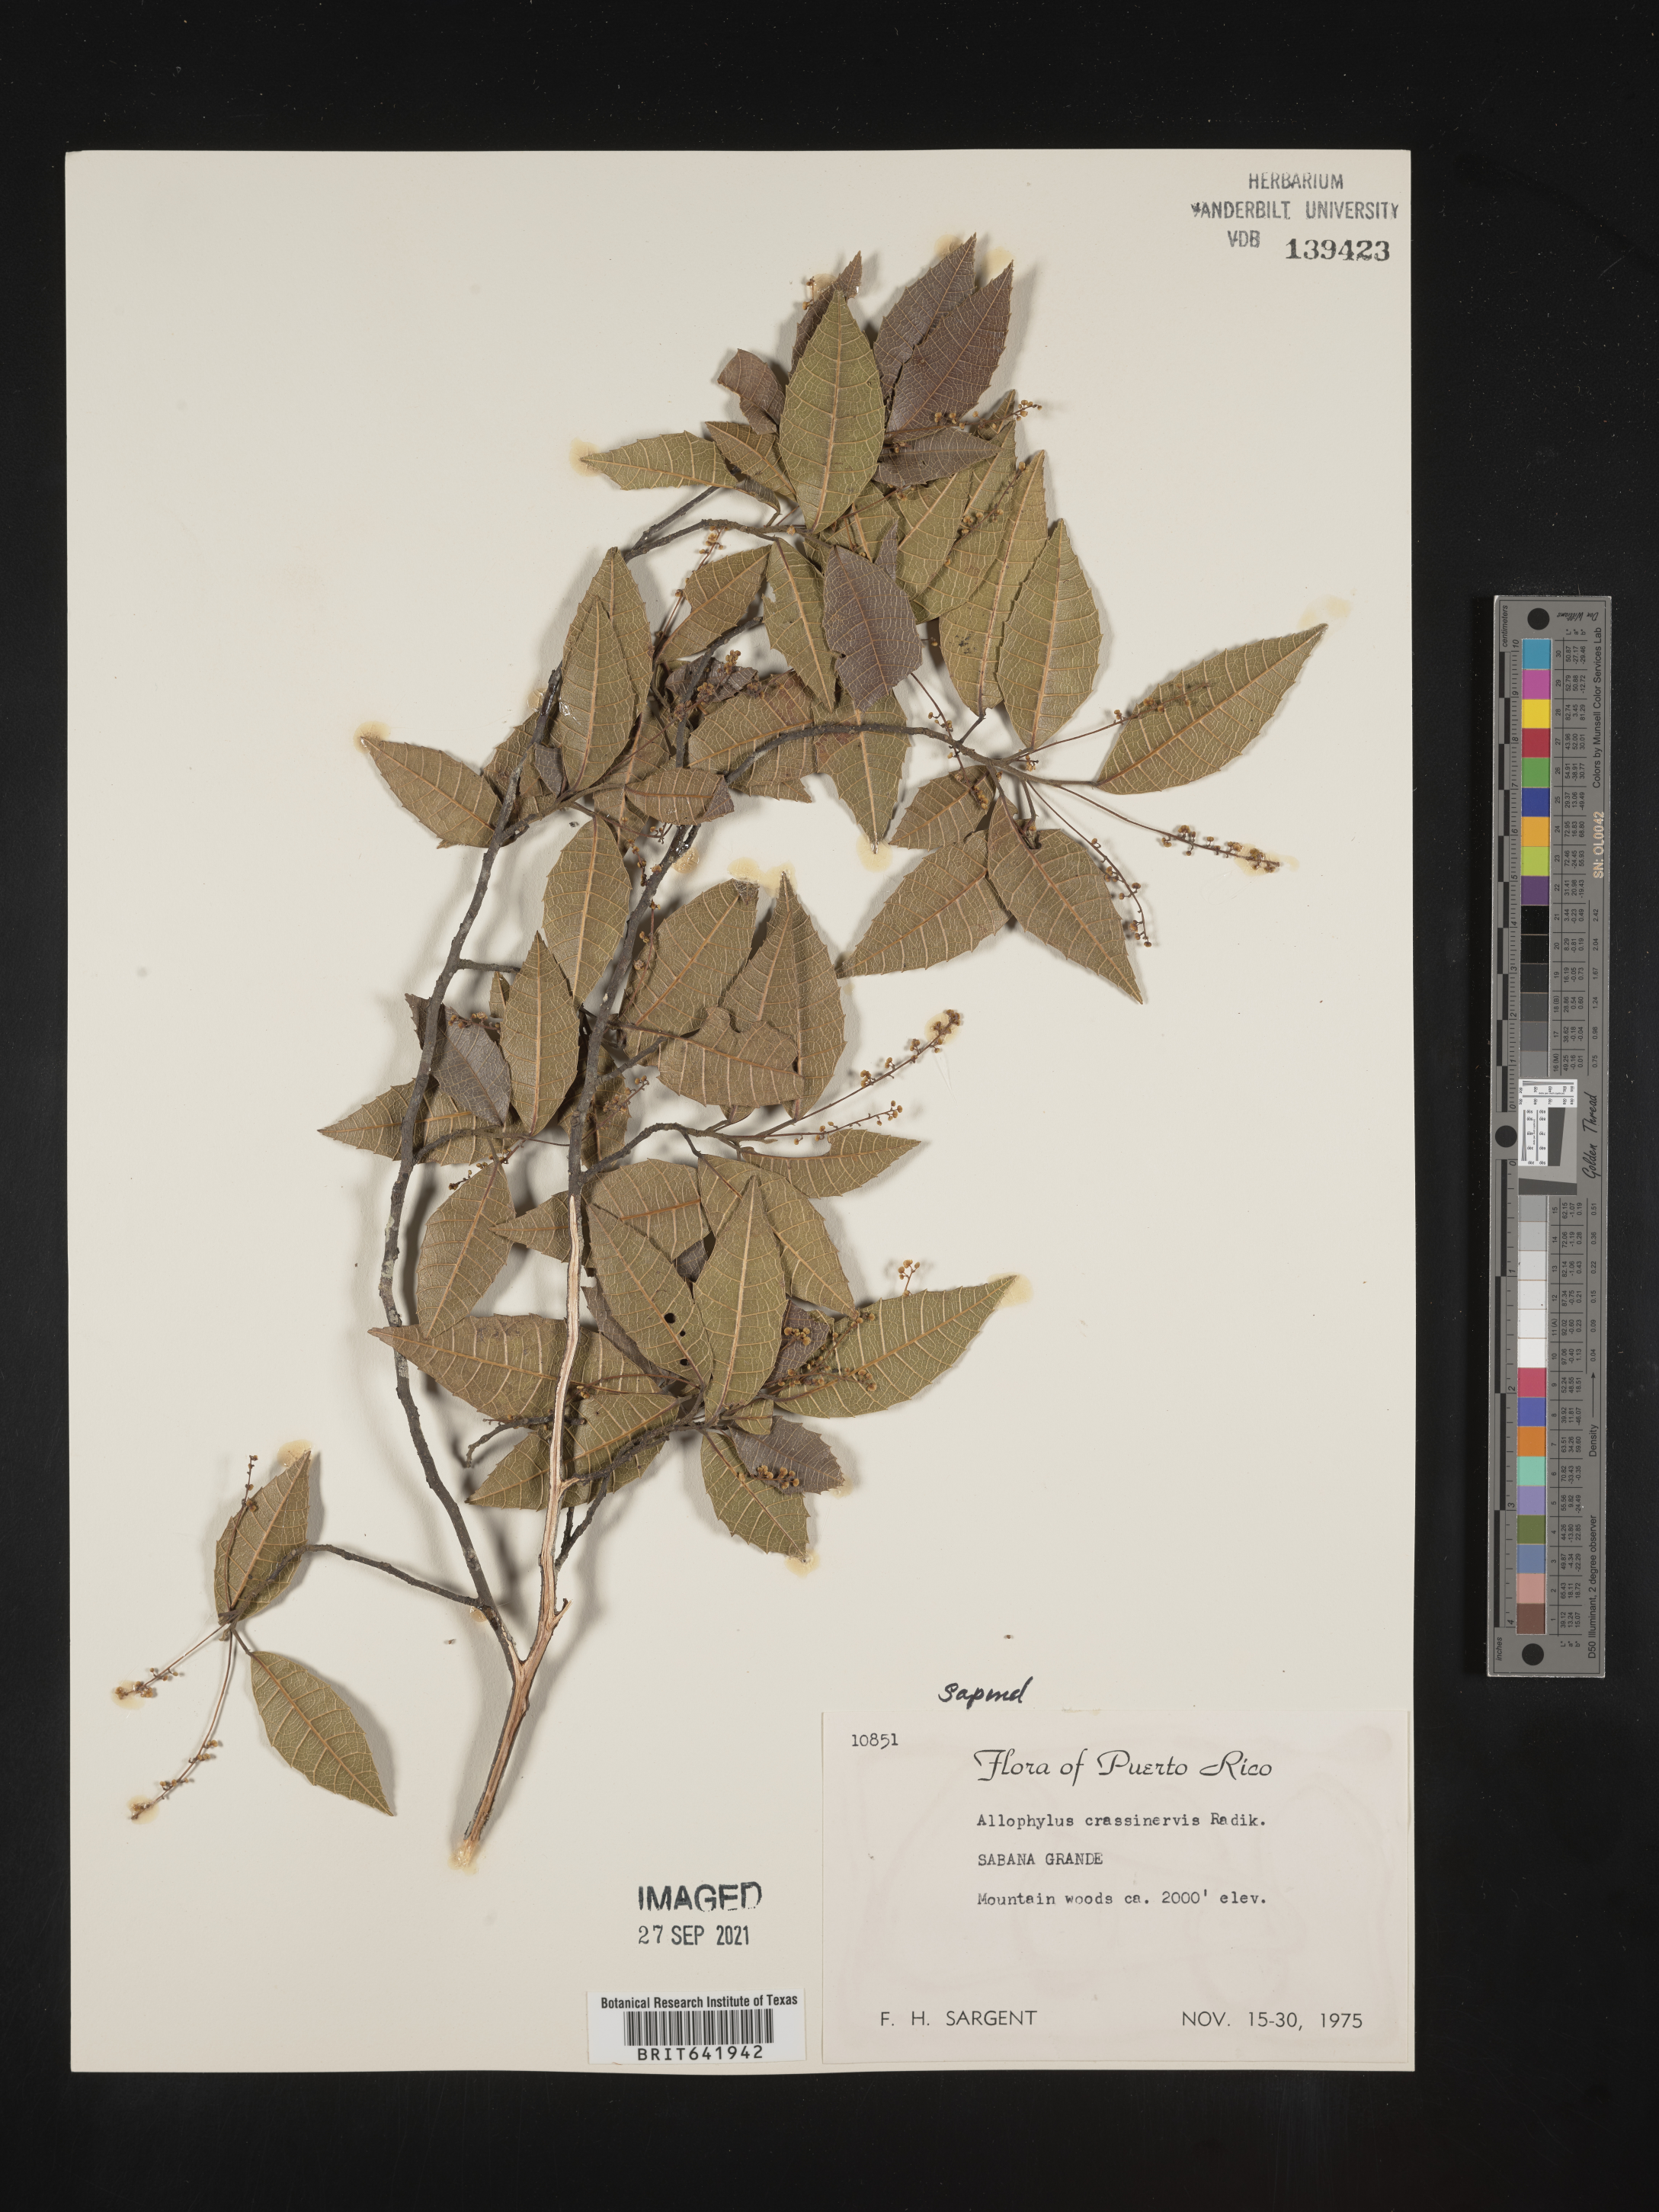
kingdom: Plantae
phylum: Tracheophyta
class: Magnoliopsida
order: Sapindales
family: Sapindaceae
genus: Allophylus
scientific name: Allophylus
